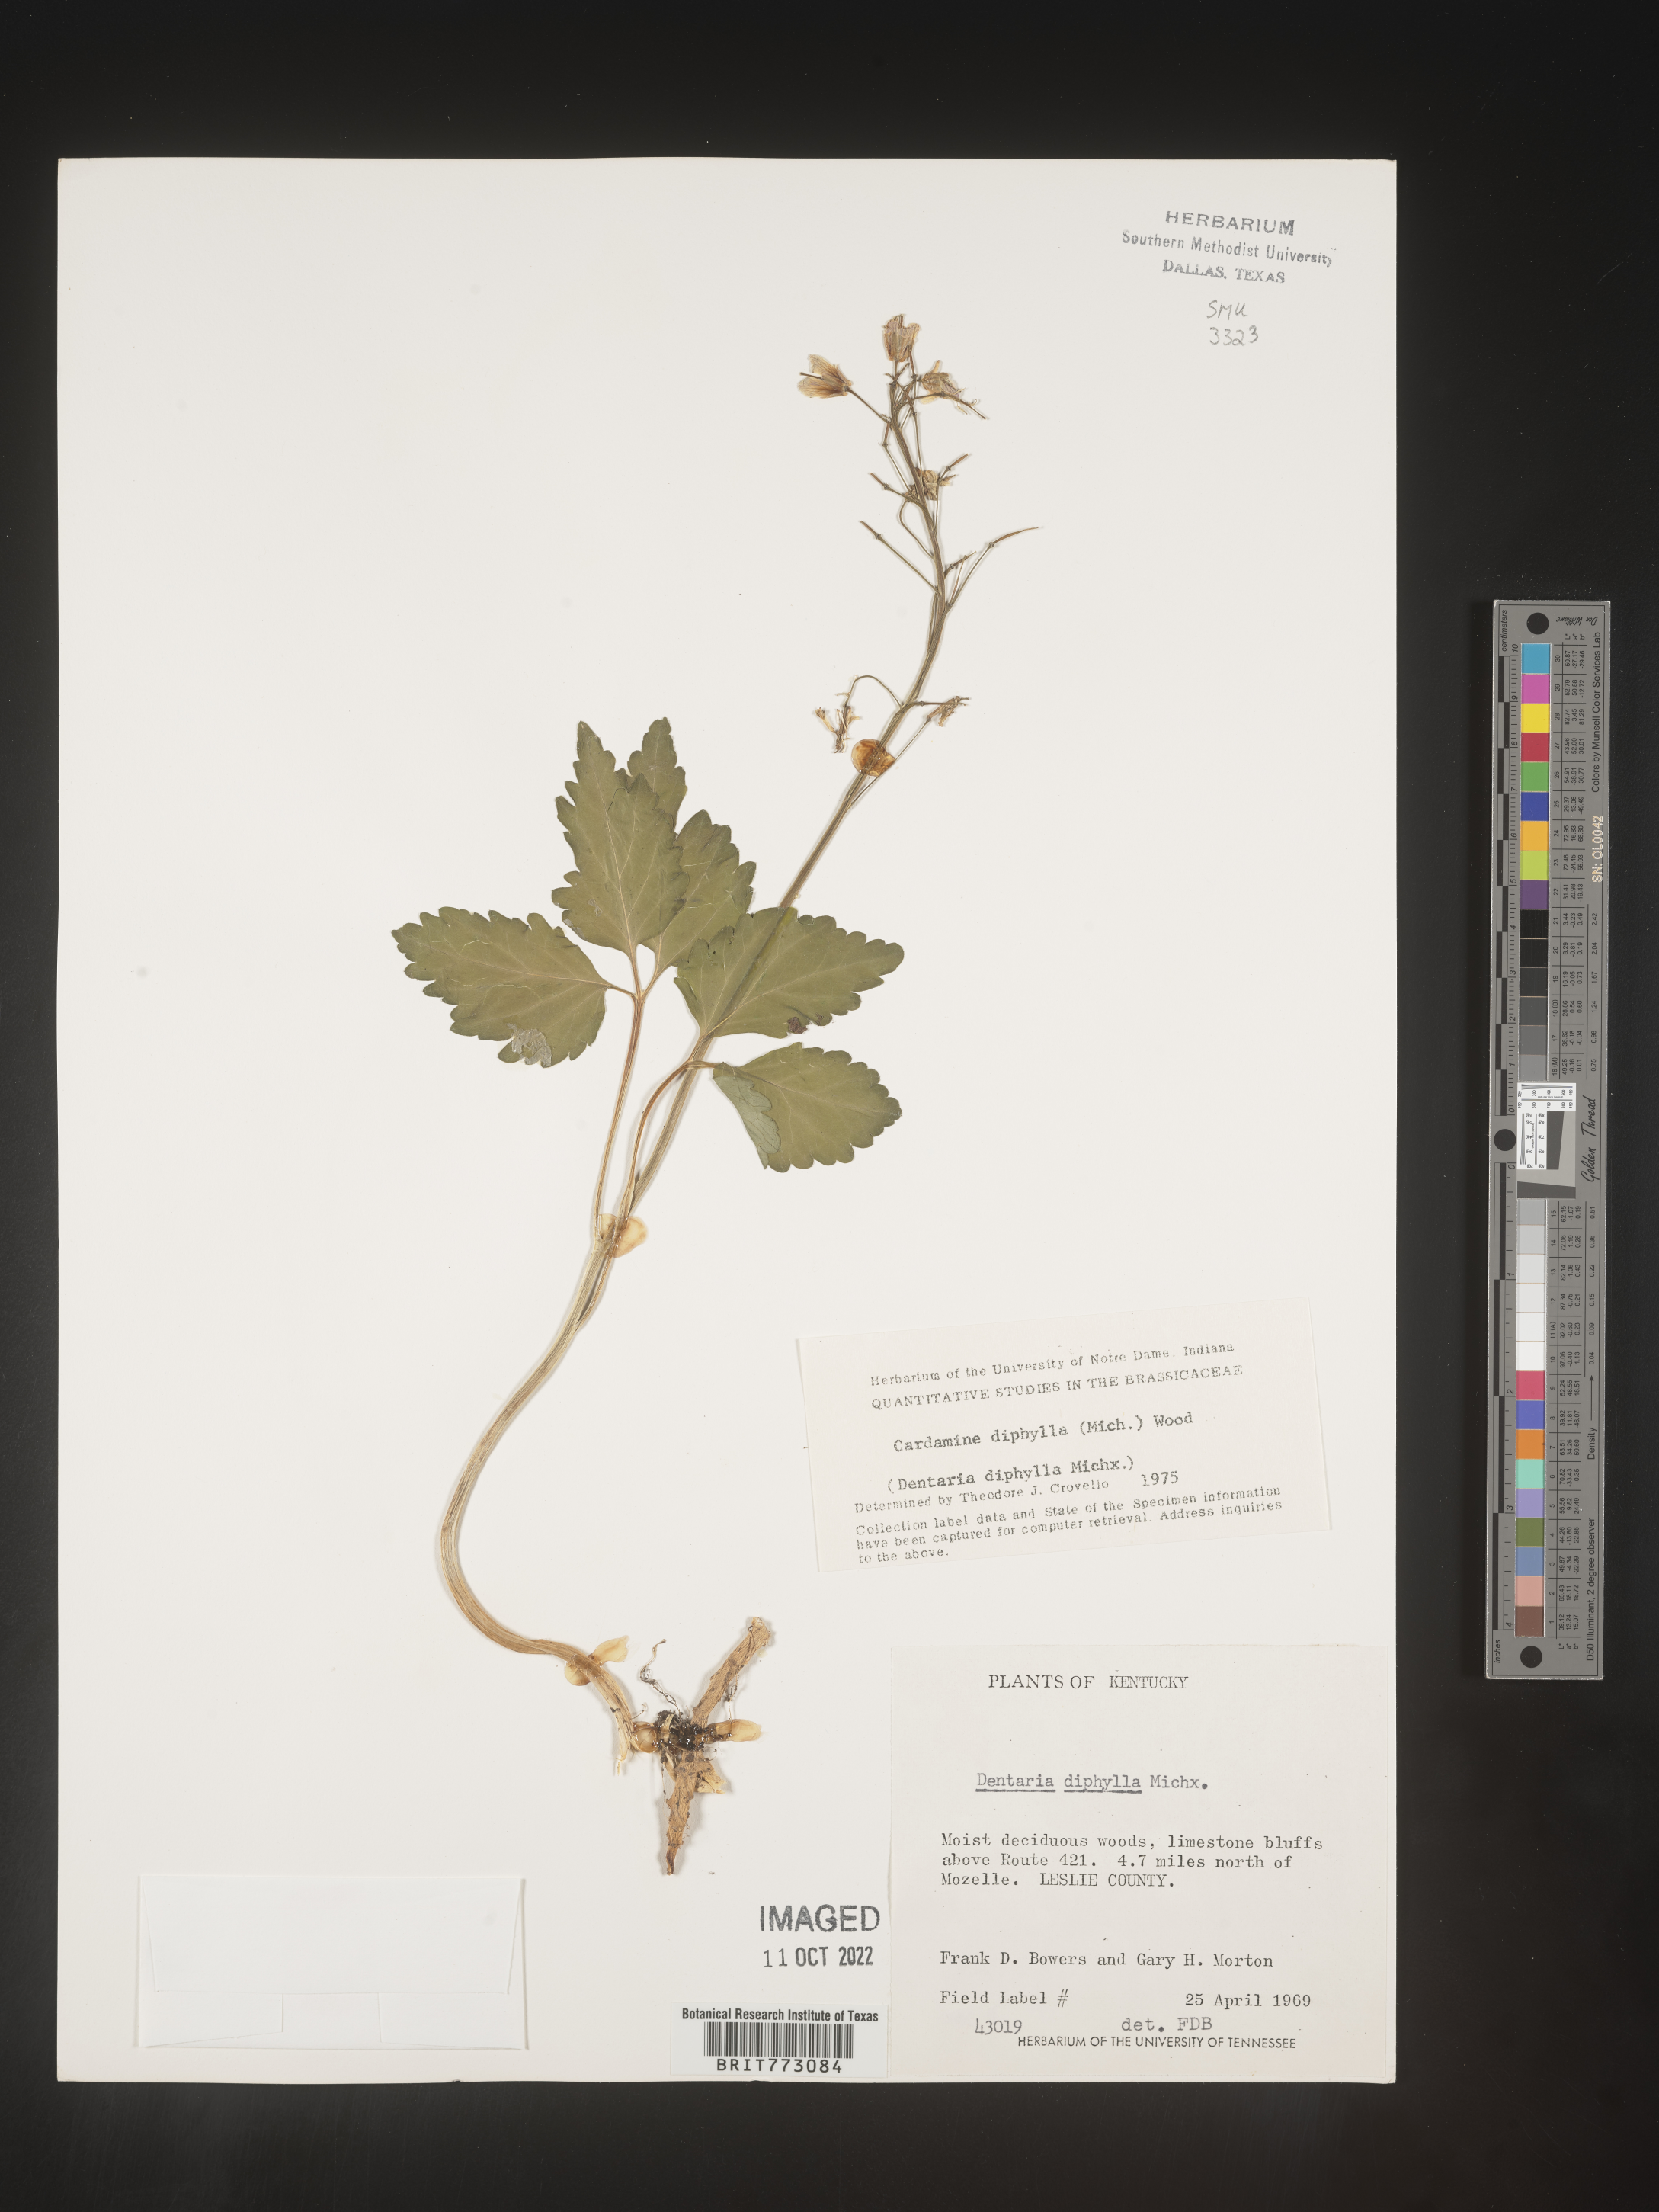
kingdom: Plantae
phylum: Tracheophyta
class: Magnoliopsida
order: Brassicales
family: Brassicaceae
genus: Cardamine
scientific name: Cardamine diphylla
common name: Broad-leaved toothwort
